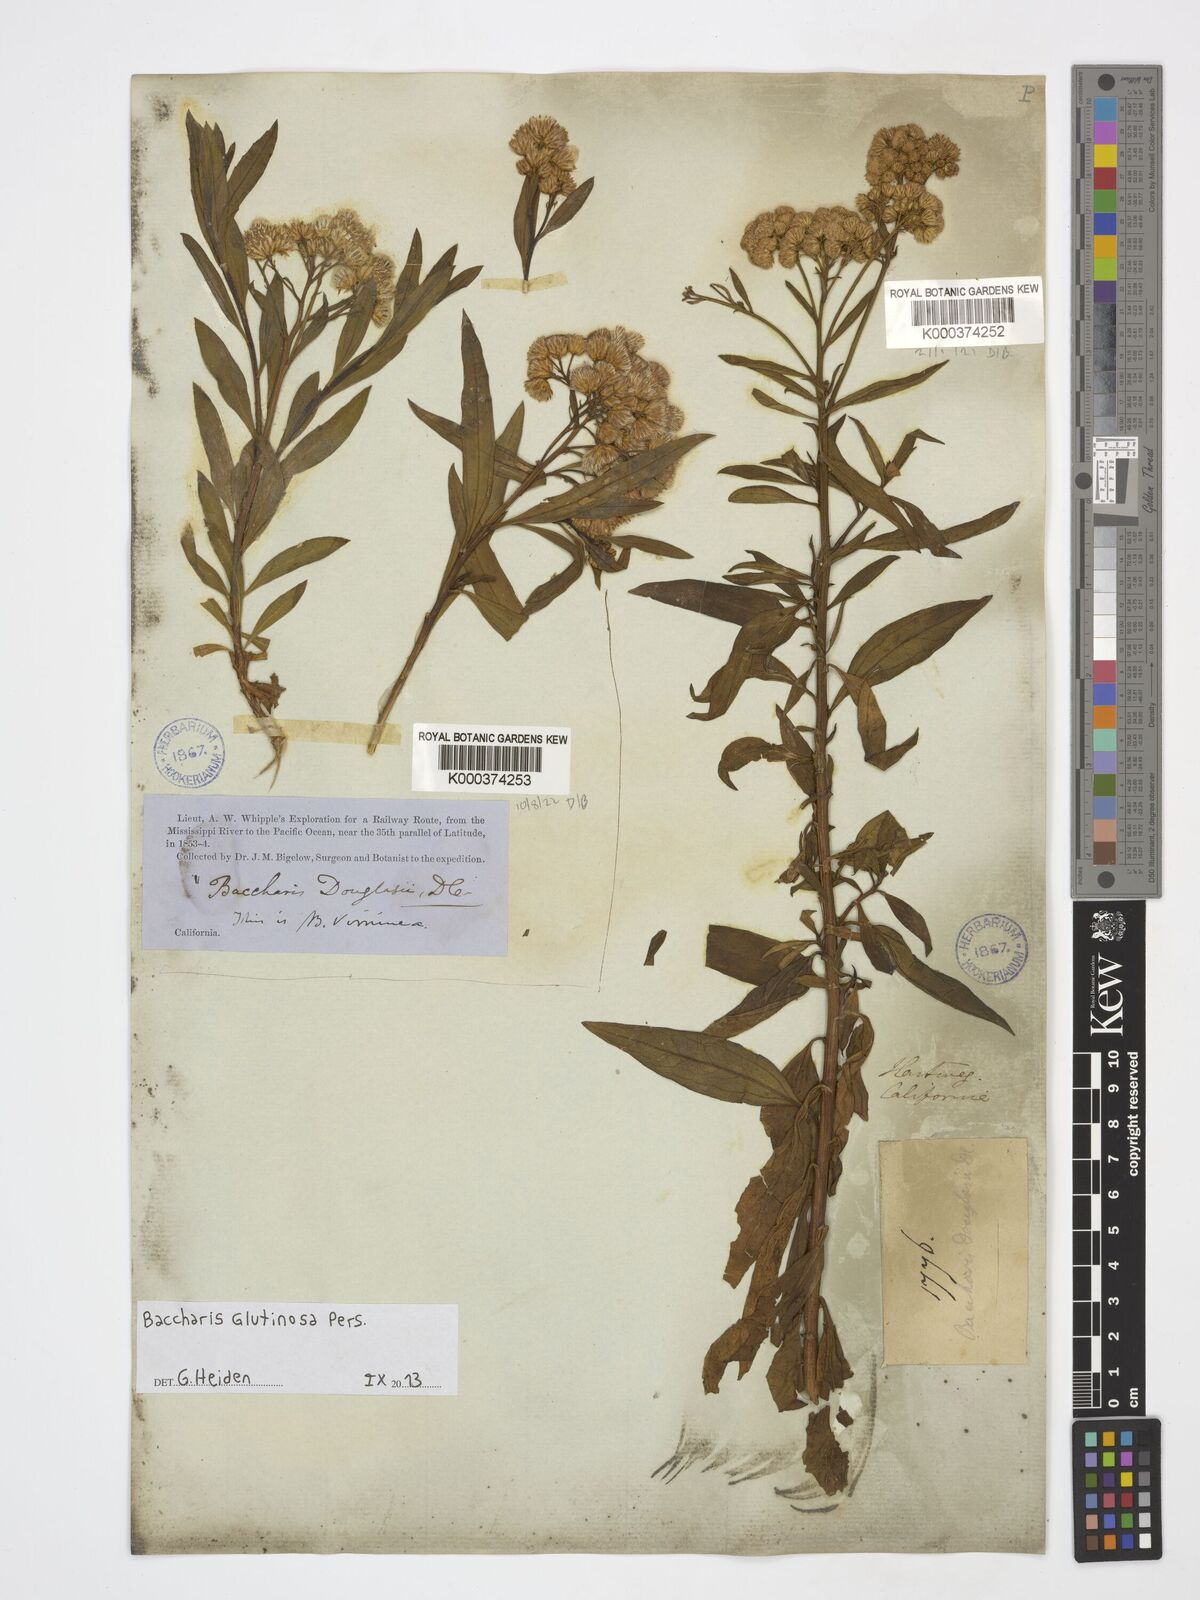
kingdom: Plantae
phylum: Tracheophyta
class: Magnoliopsida
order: Asterales
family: Asteraceae
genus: Baccharis
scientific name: Baccharis glutinosa
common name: Saltmarsh baccharis
